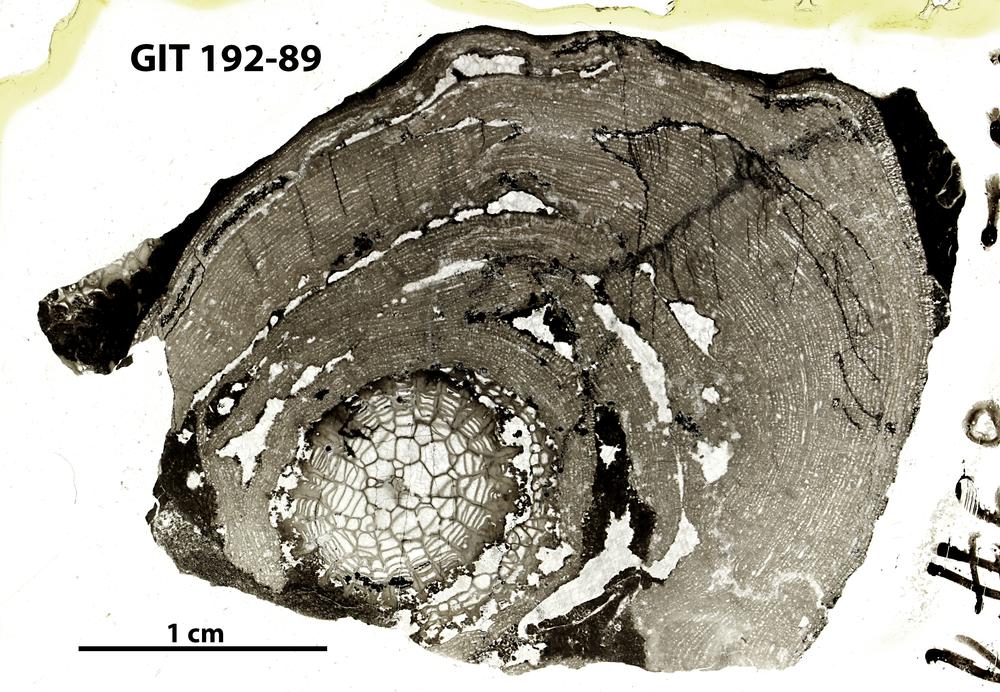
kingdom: Animalia
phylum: Porifera
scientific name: Porifera
